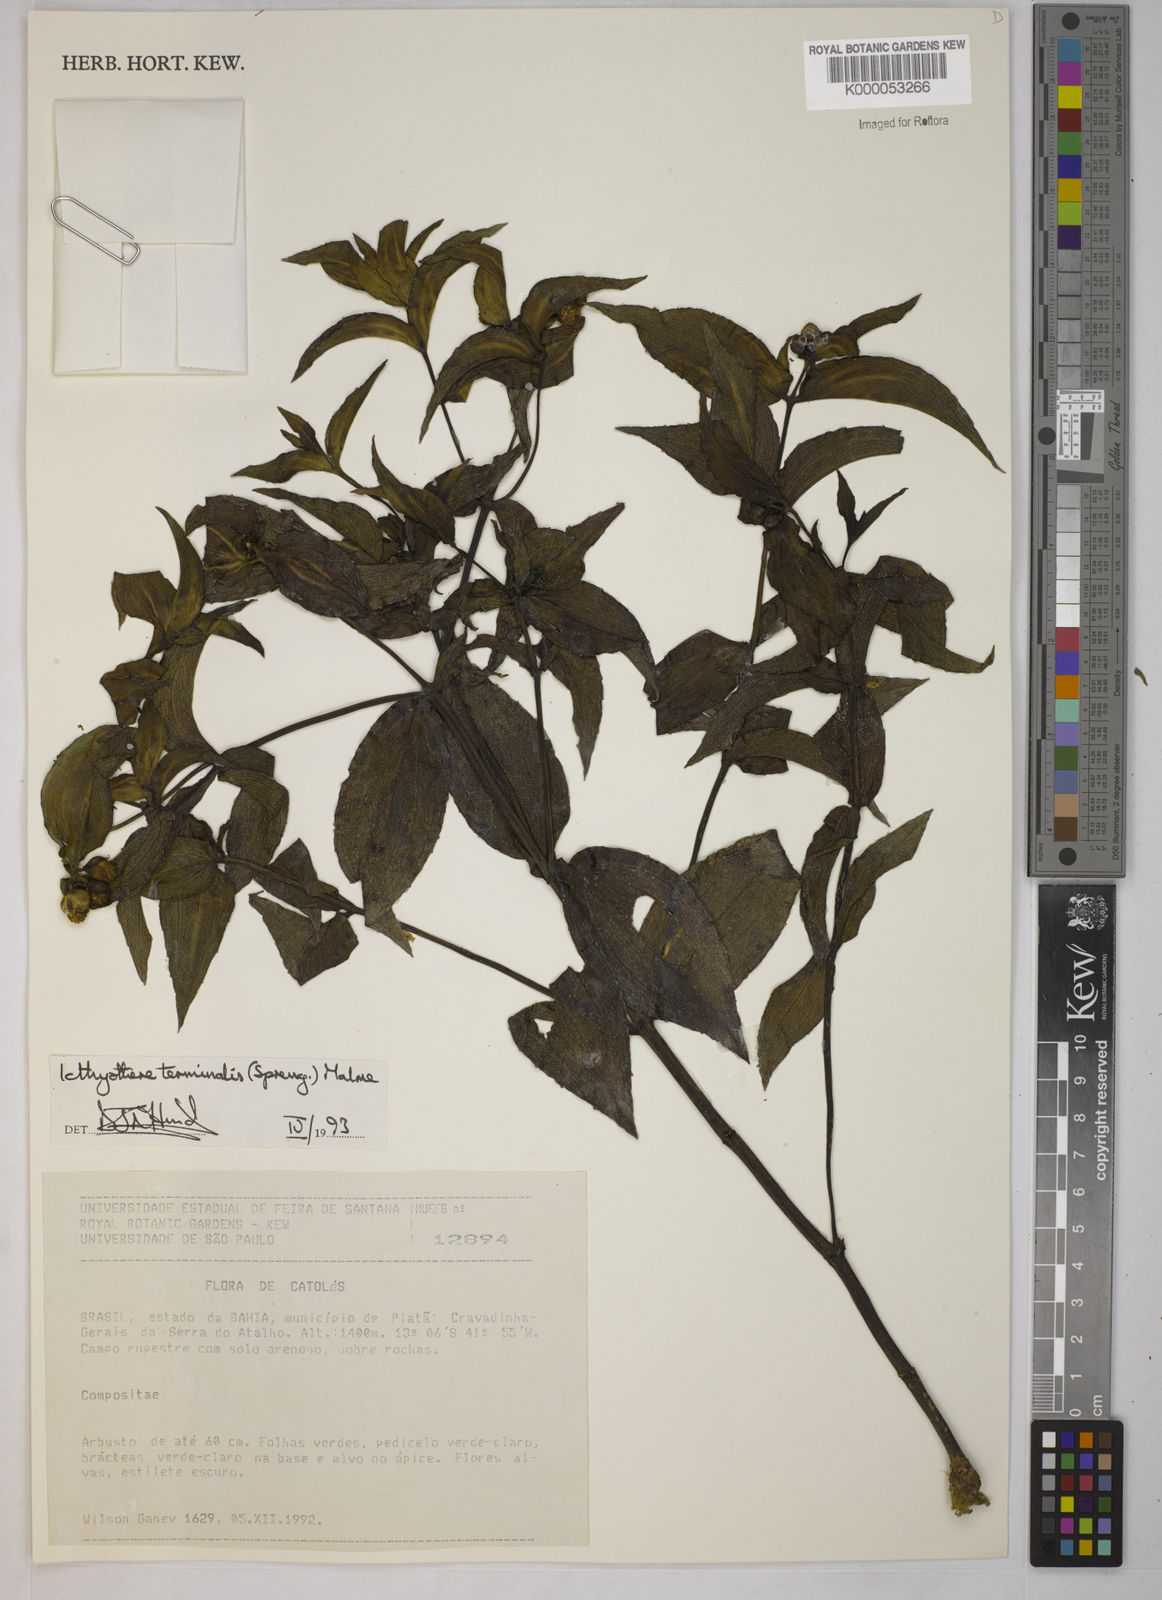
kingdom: Plantae
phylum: Tracheophyta
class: Magnoliopsida
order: Asterales
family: Asteraceae
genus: Ichthyothere
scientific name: Ichthyothere terminalis
